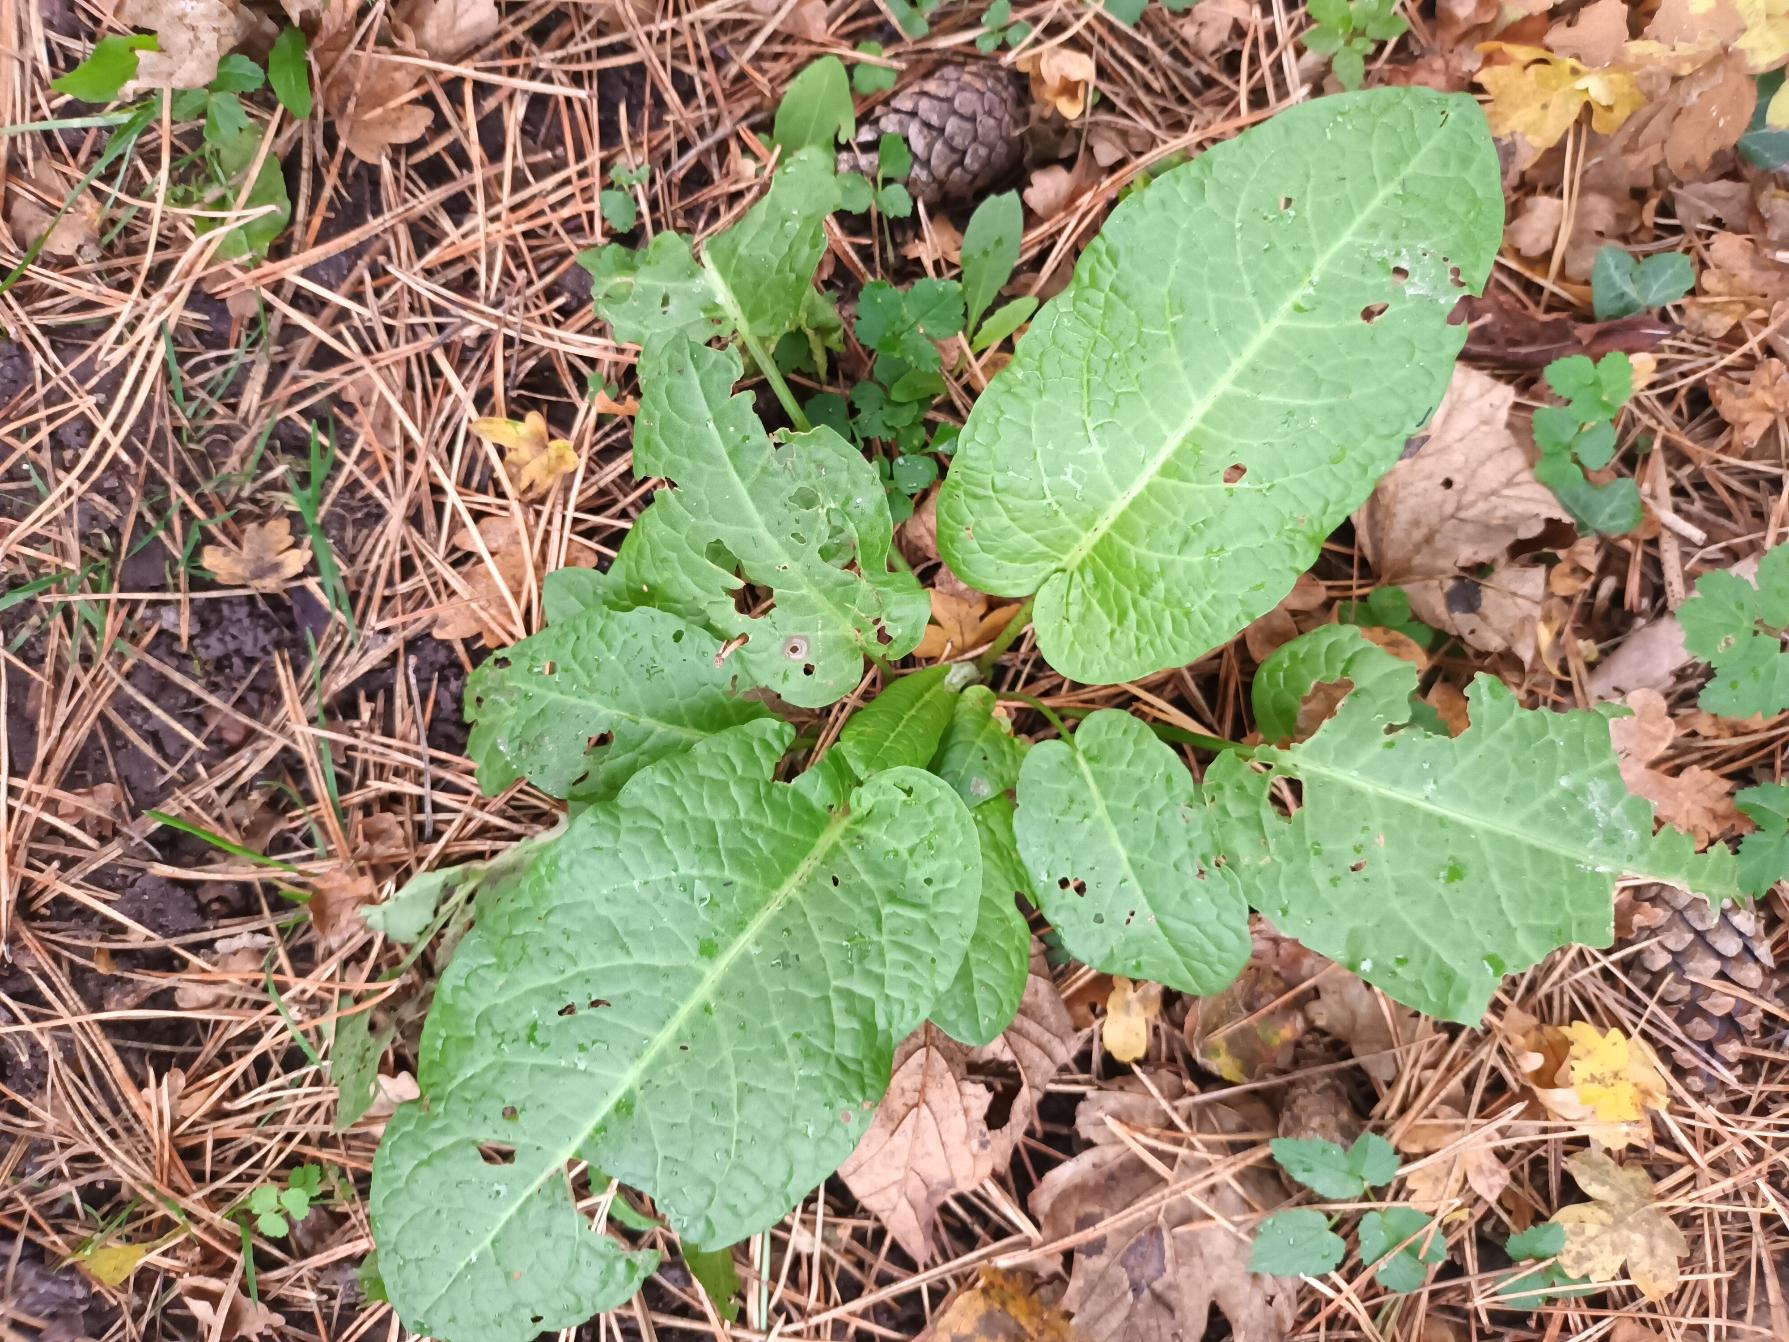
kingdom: Plantae
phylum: Tracheophyta
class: Magnoliopsida
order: Caryophyllales
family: Polygonaceae
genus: Rumex
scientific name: Rumex obtusifolius
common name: Butbladet skræppe
